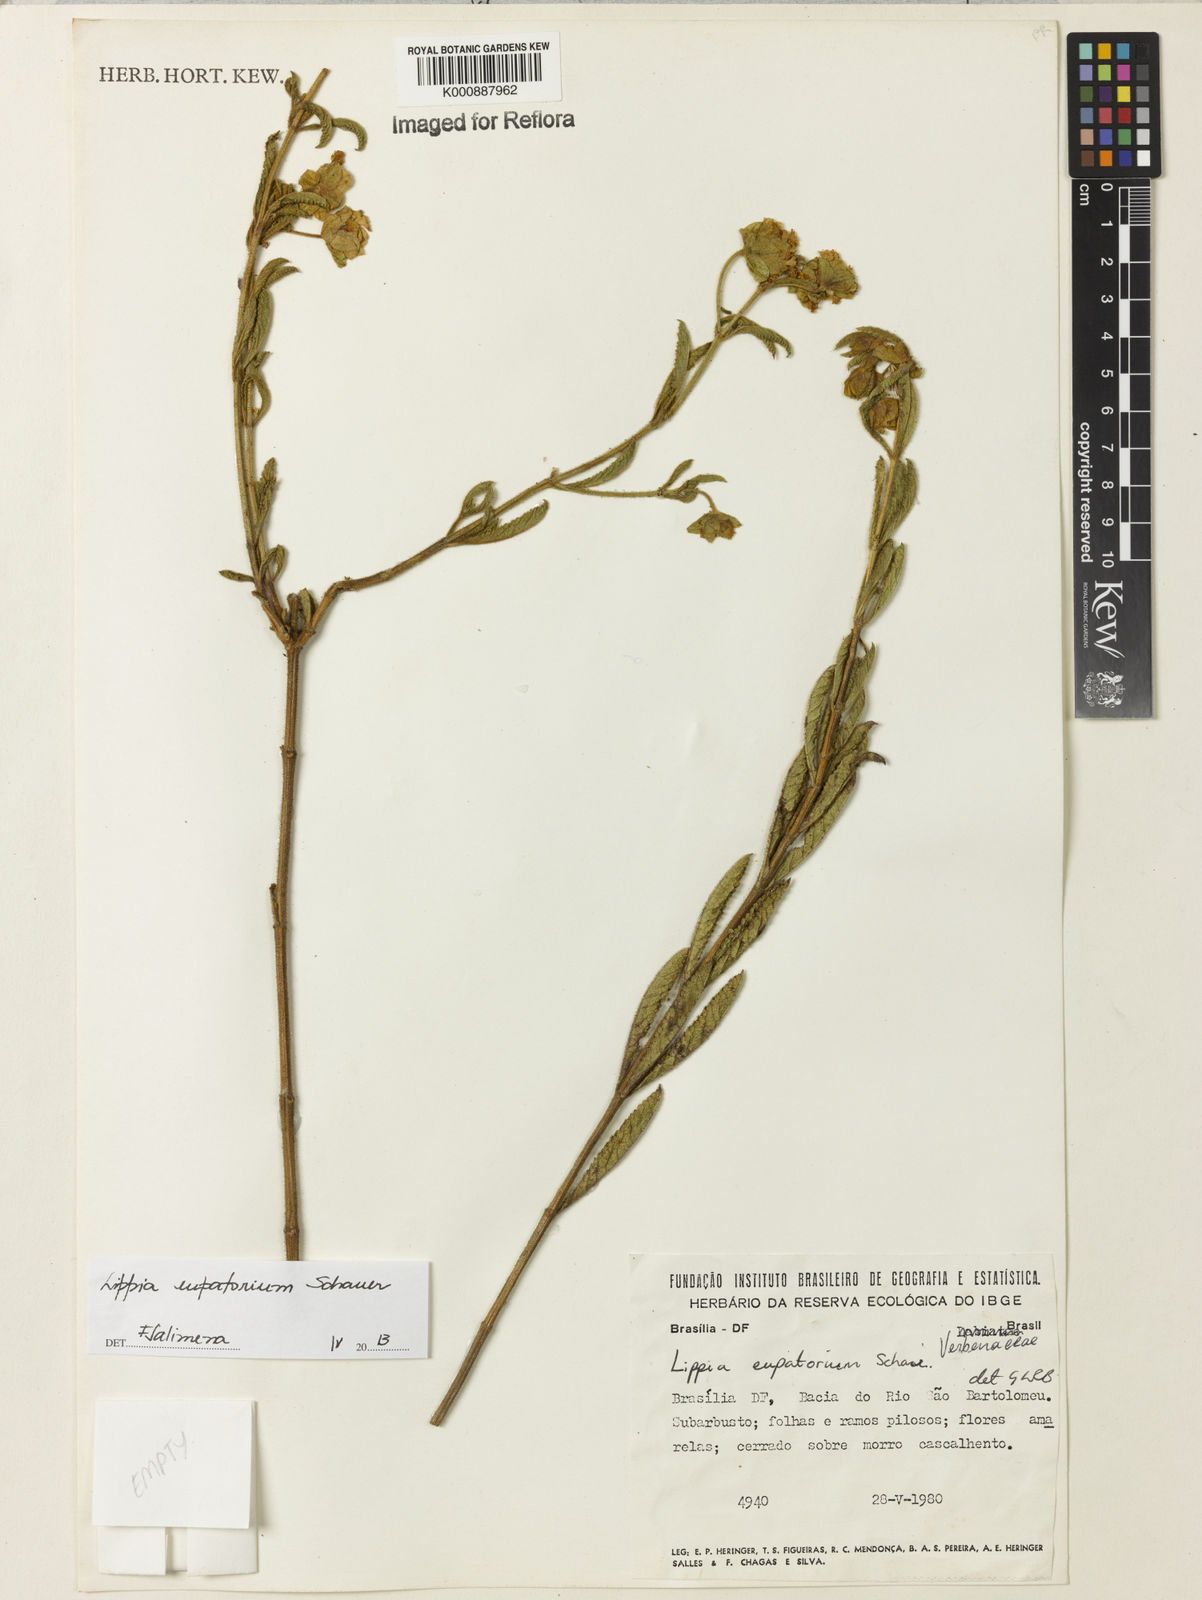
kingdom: Plantae
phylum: Tracheophyta
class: Magnoliopsida
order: Lamiales
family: Verbenaceae
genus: Lippia
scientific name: Lippia eupatorium
